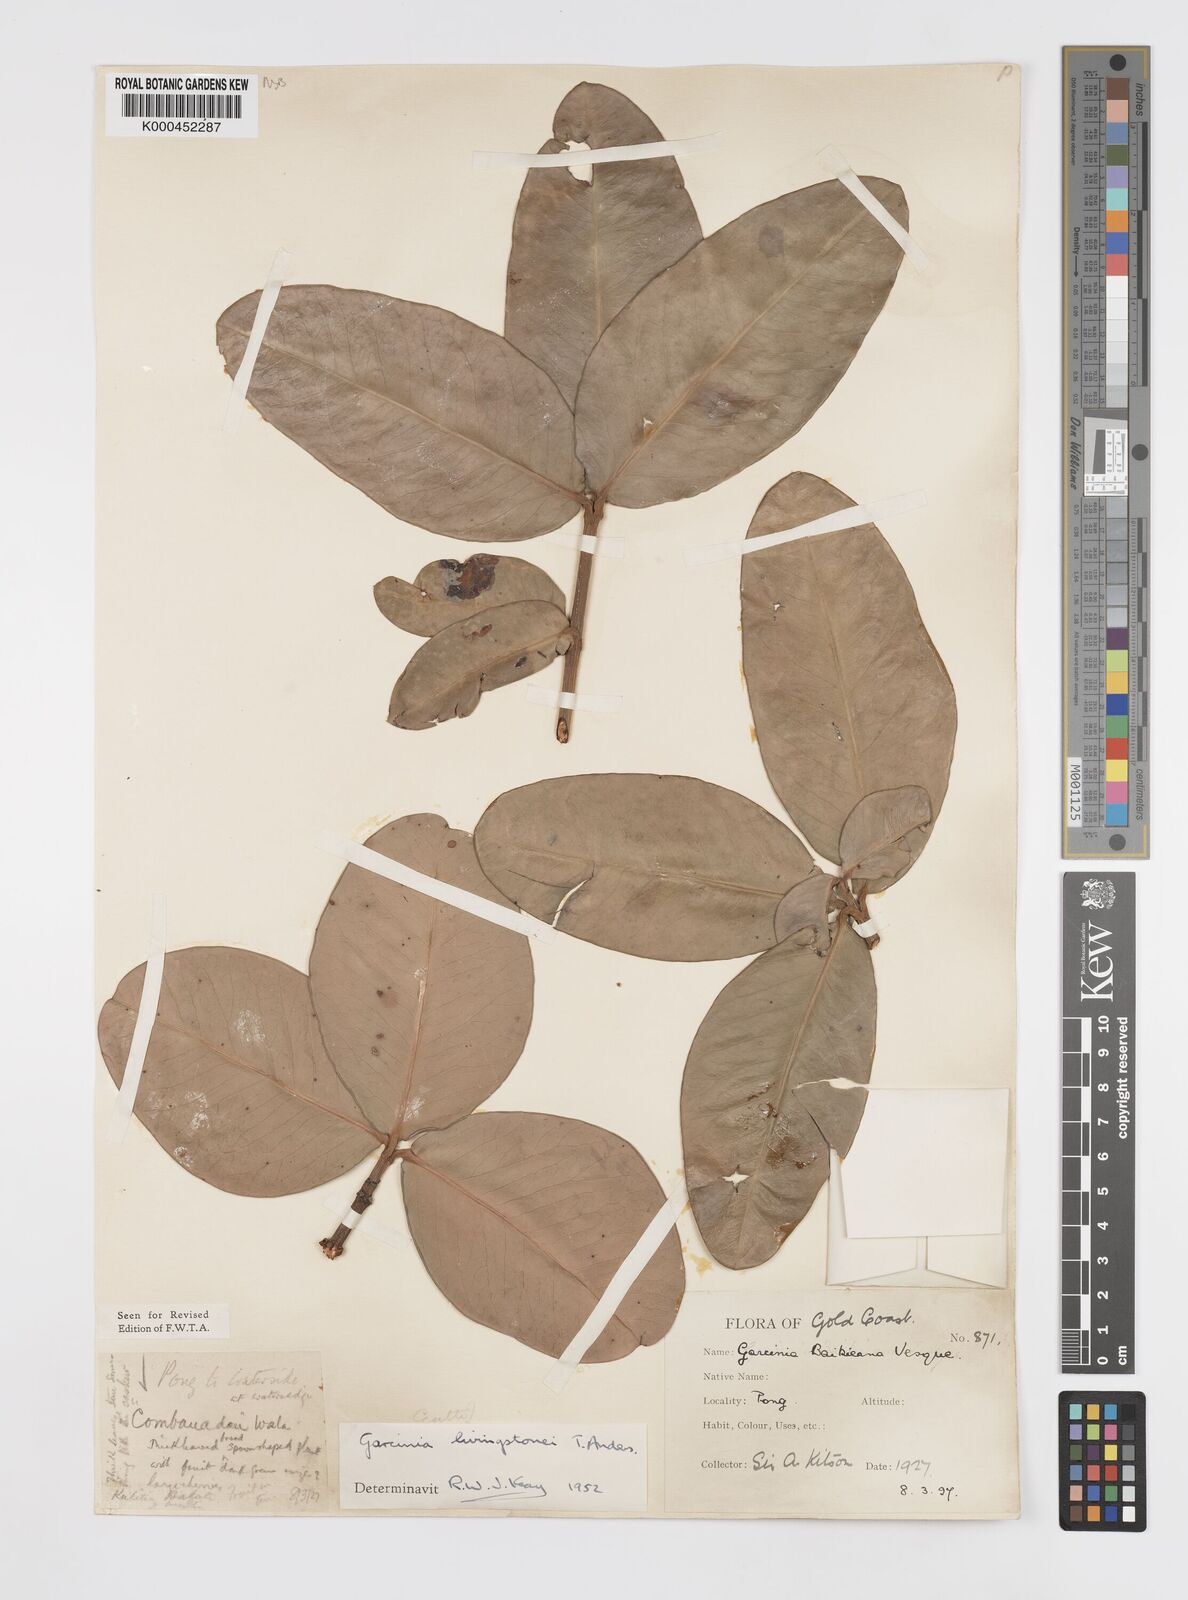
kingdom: Plantae
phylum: Tracheophyta
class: Magnoliopsida
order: Malpighiales
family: Clusiaceae
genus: Garcinia
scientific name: Garcinia livingstonei
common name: African mangosteen
